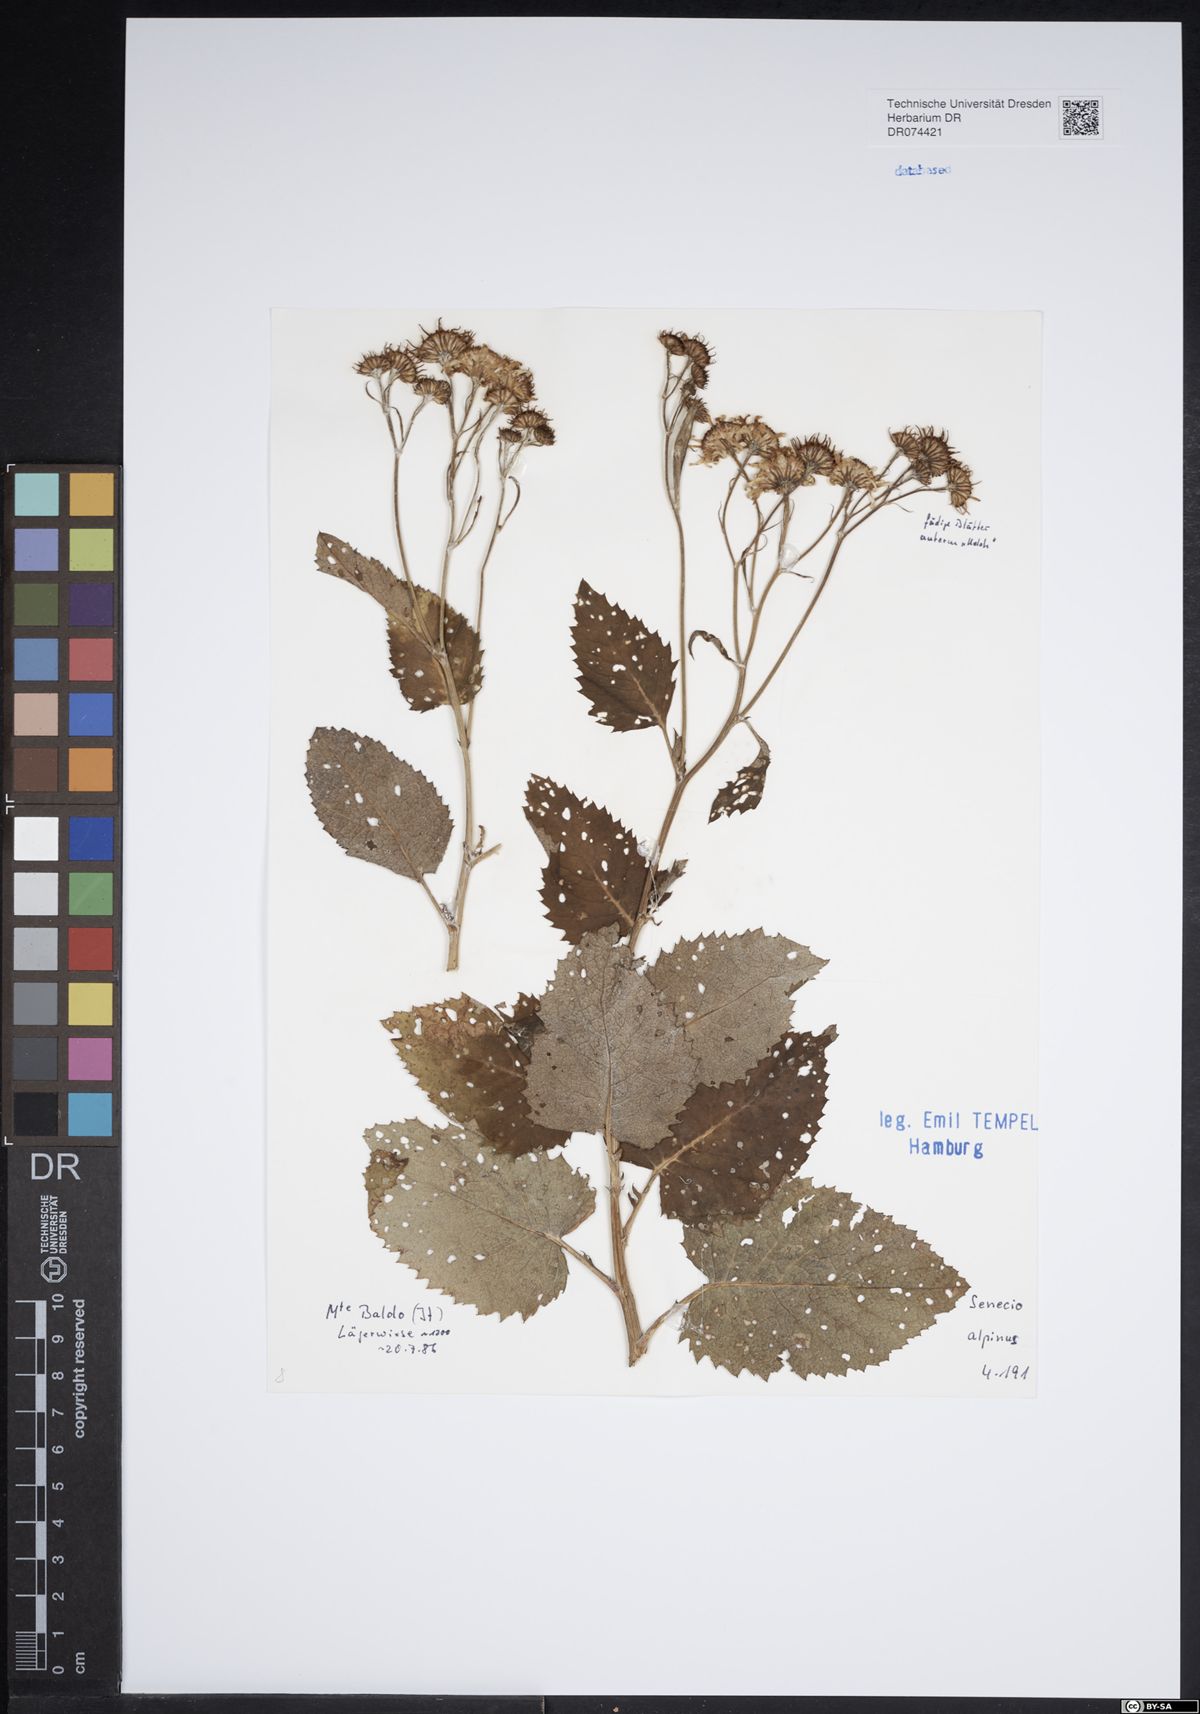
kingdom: Plantae
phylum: Tracheophyta
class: Magnoliopsida
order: Asterales
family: Asteraceae
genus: Jacobaea
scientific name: Jacobaea alpina
